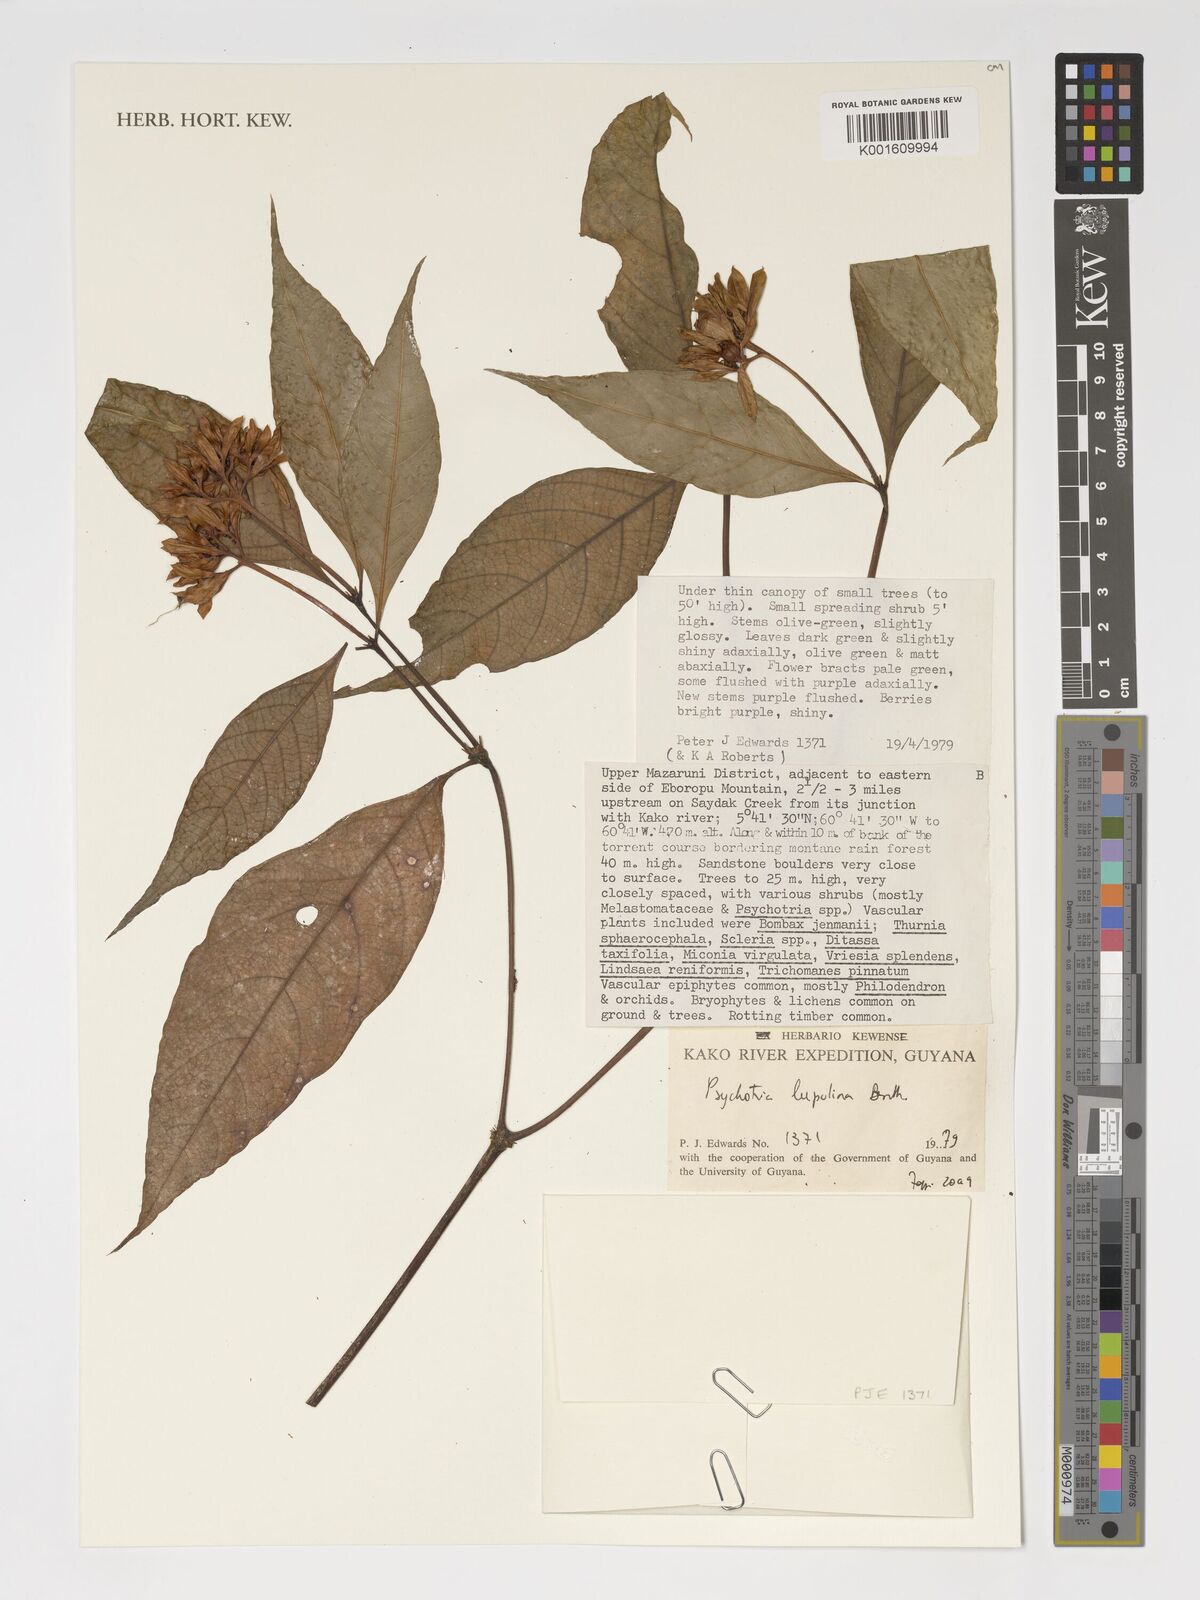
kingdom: Plantae
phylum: Tracheophyta
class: Magnoliopsida
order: Gentianales
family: Rubiaceae
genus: Palicourea
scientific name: Palicourea justiciifolia
